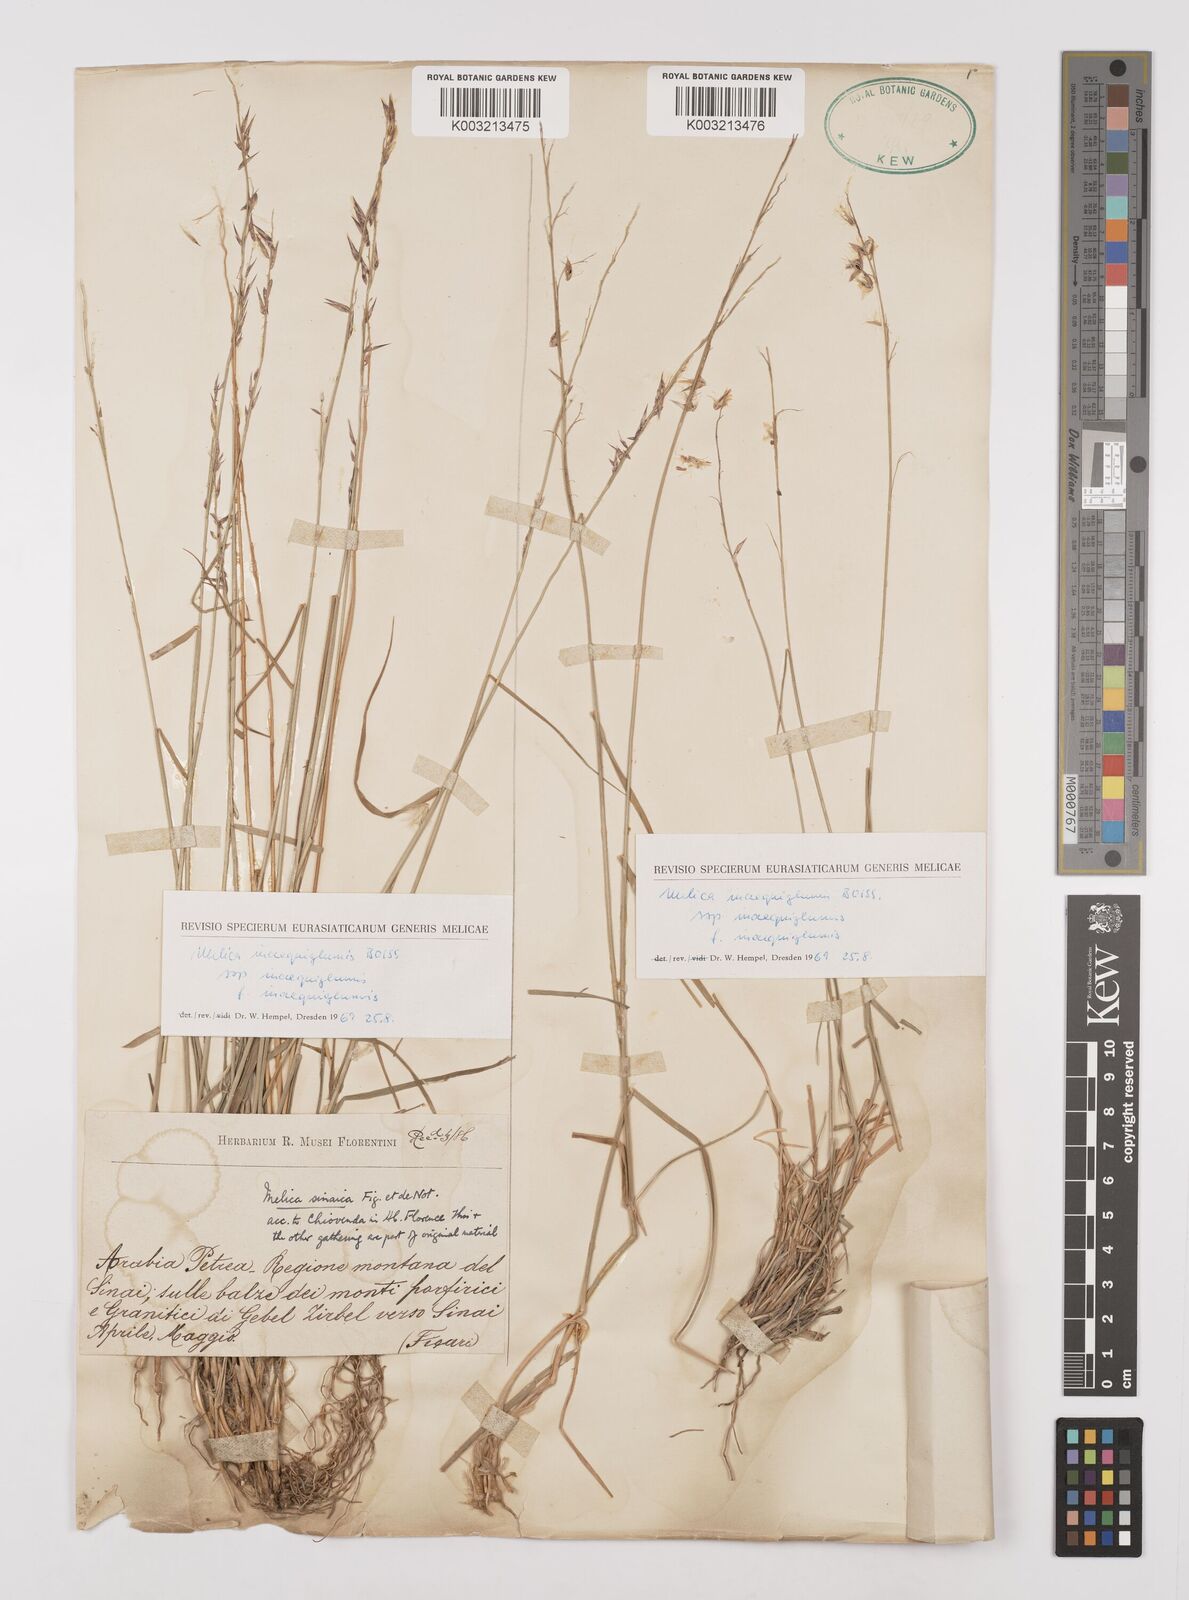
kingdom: Plantae
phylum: Tracheophyta
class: Liliopsida
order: Poales
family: Poaceae
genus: Melica
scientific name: Melica persica
